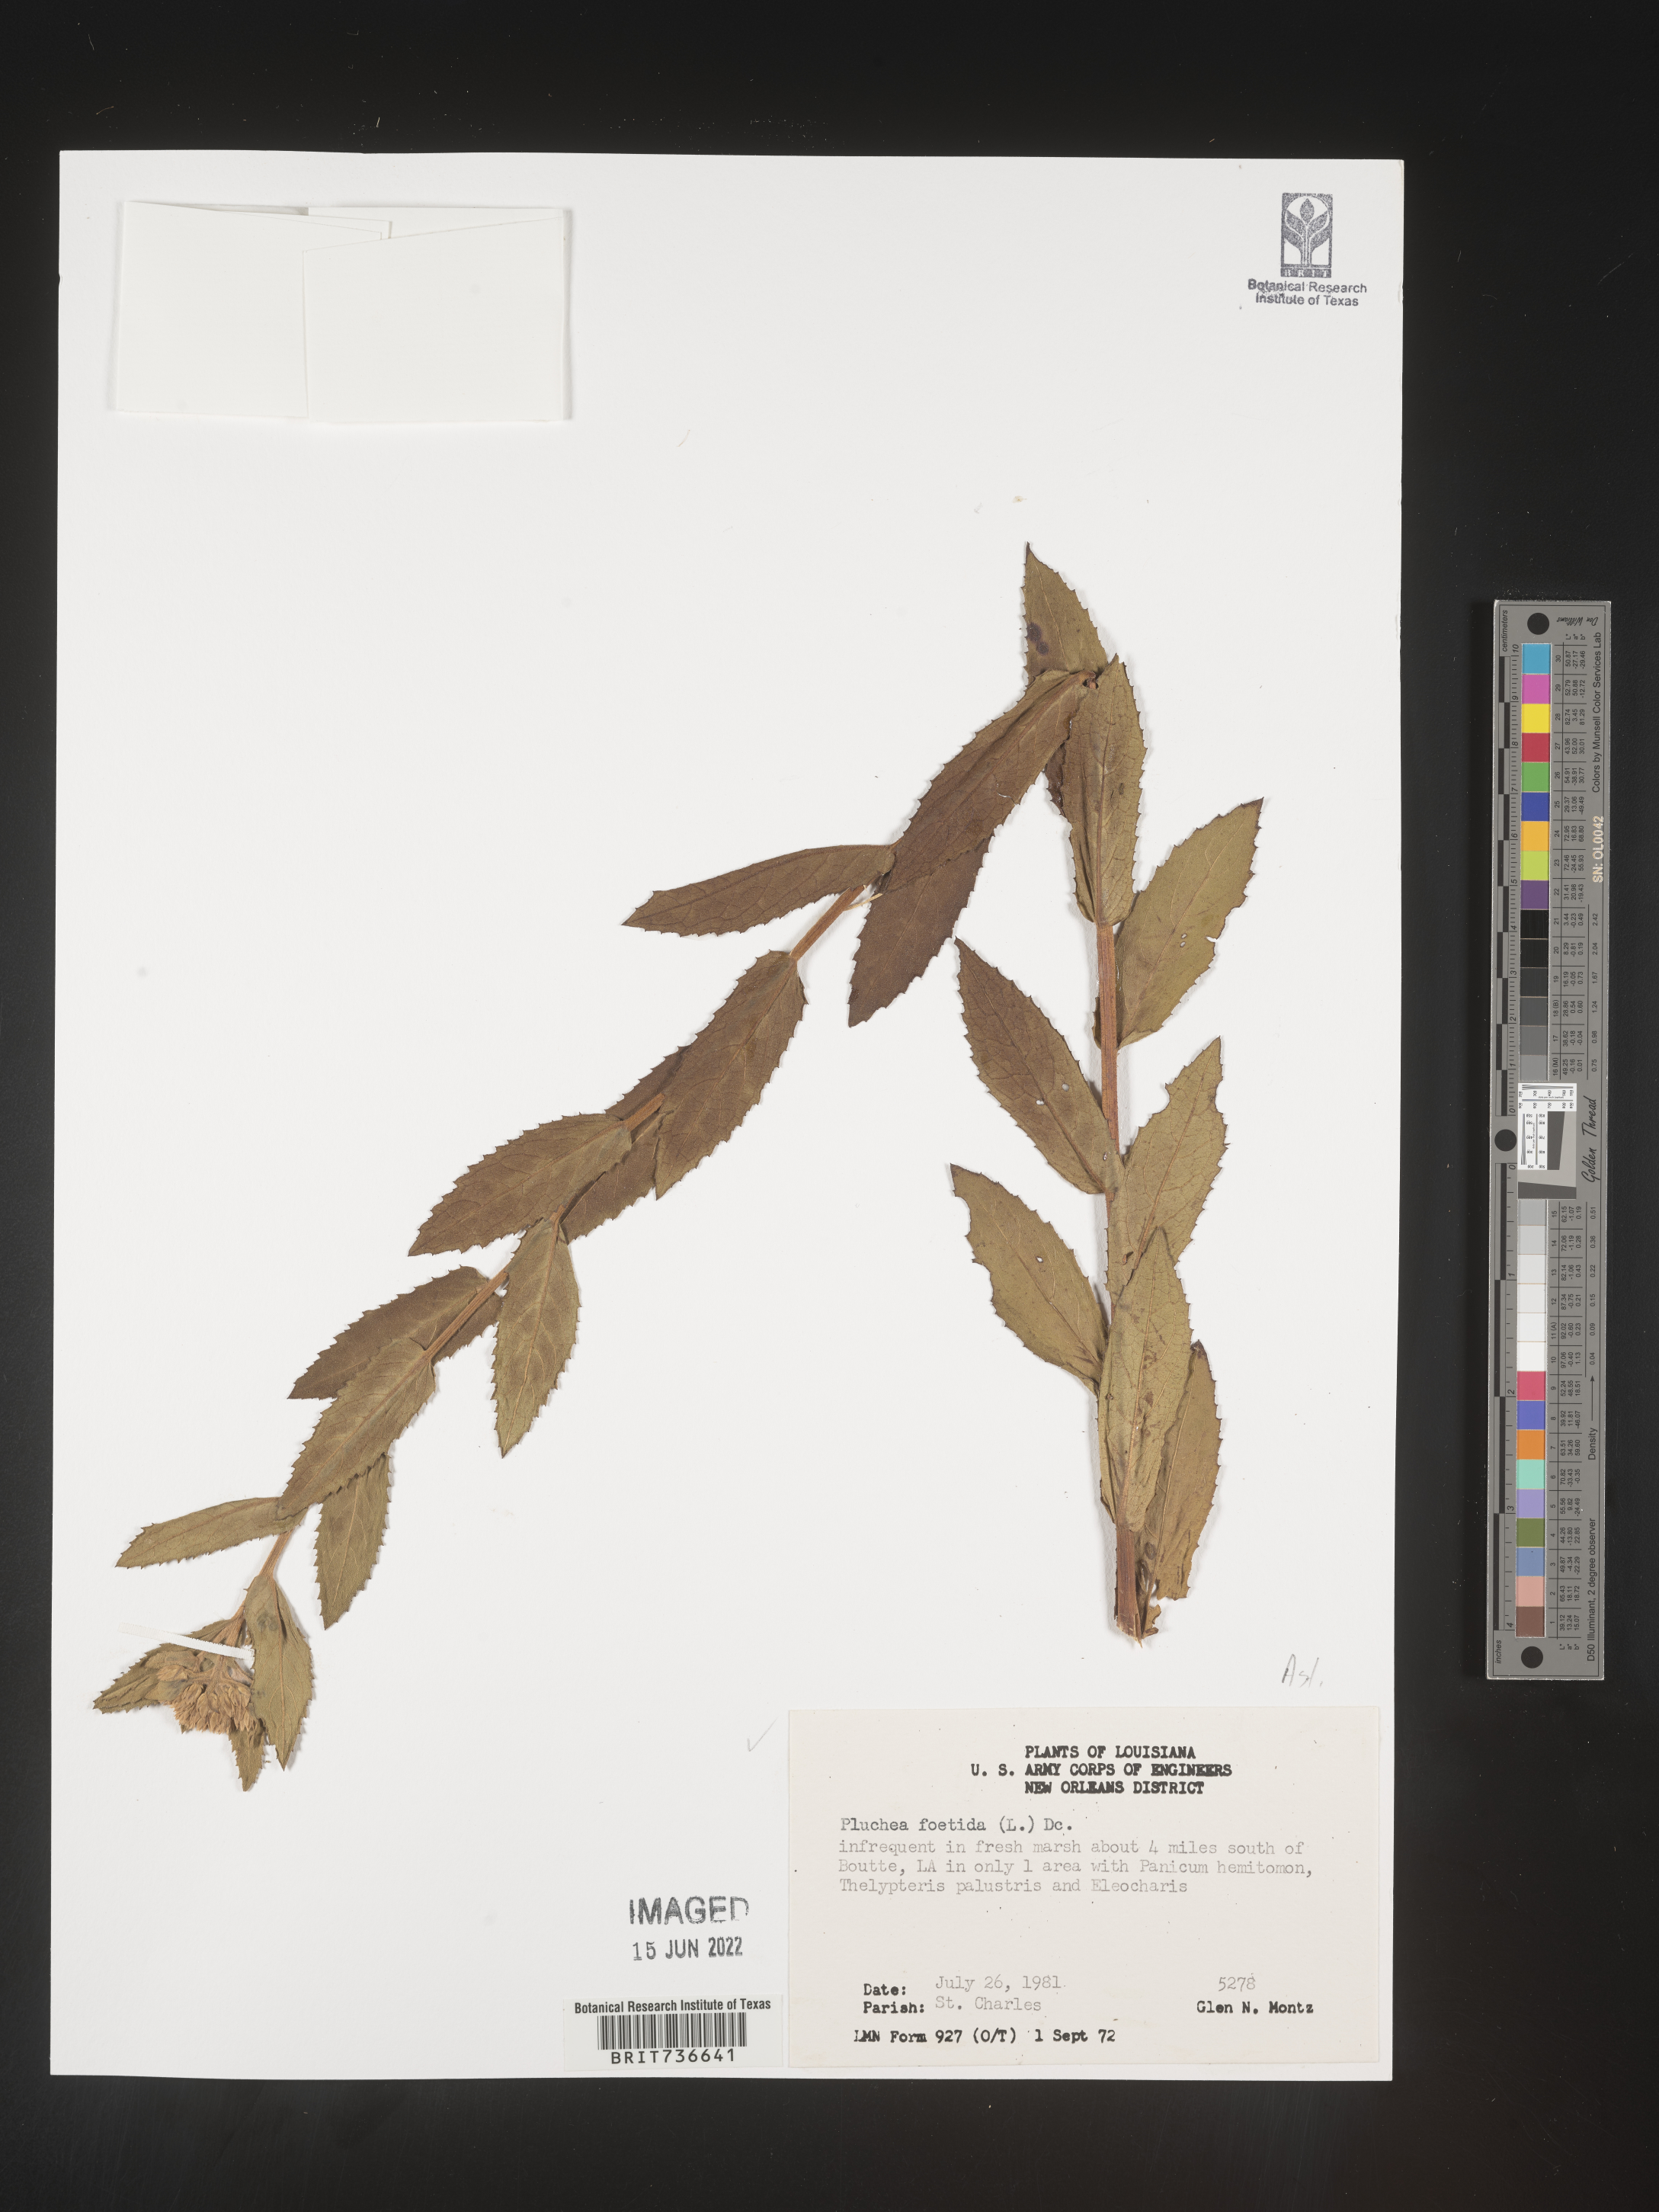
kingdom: Plantae
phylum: Tracheophyta
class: Magnoliopsida
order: Asterales
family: Asteraceae
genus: Pluchea
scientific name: Pluchea foetida
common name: Stinking camphorweed
